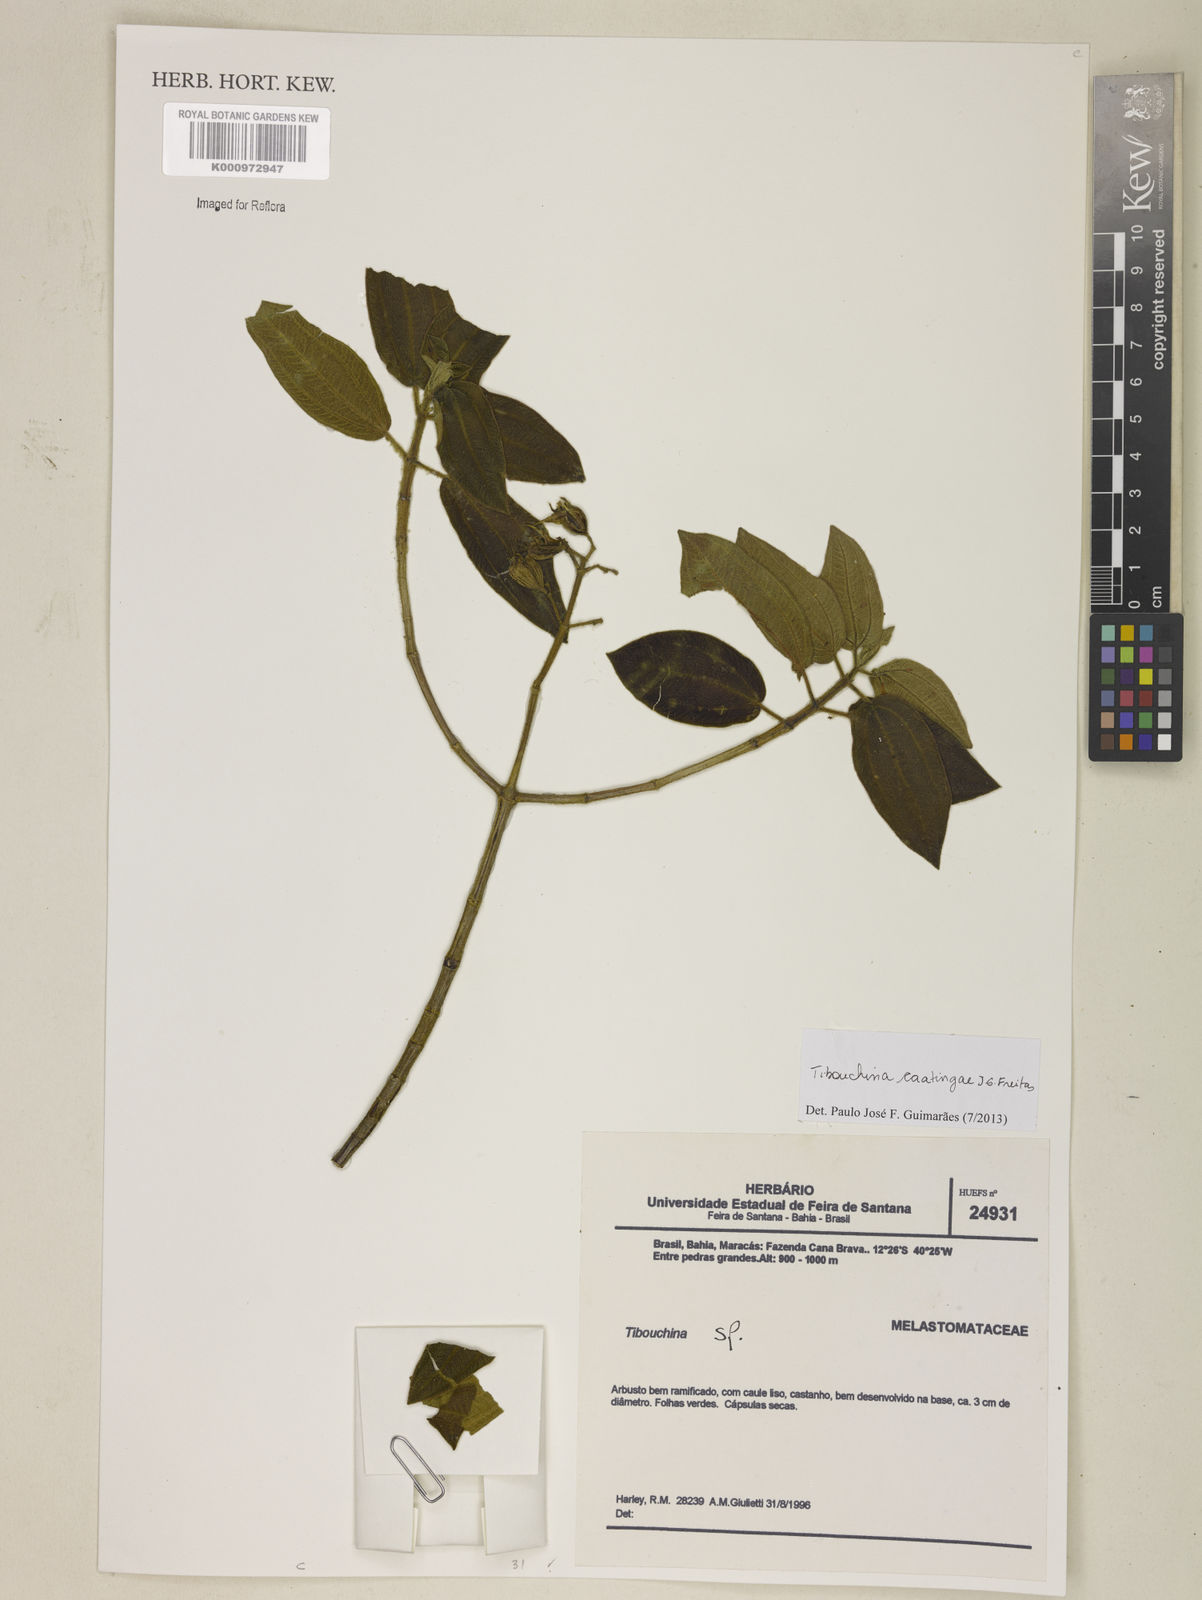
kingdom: Plantae
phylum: Tracheophyta
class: Magnoliopsida
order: Myrtales
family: Melastomataceae
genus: Pleroma
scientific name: Pleroma caatingae
